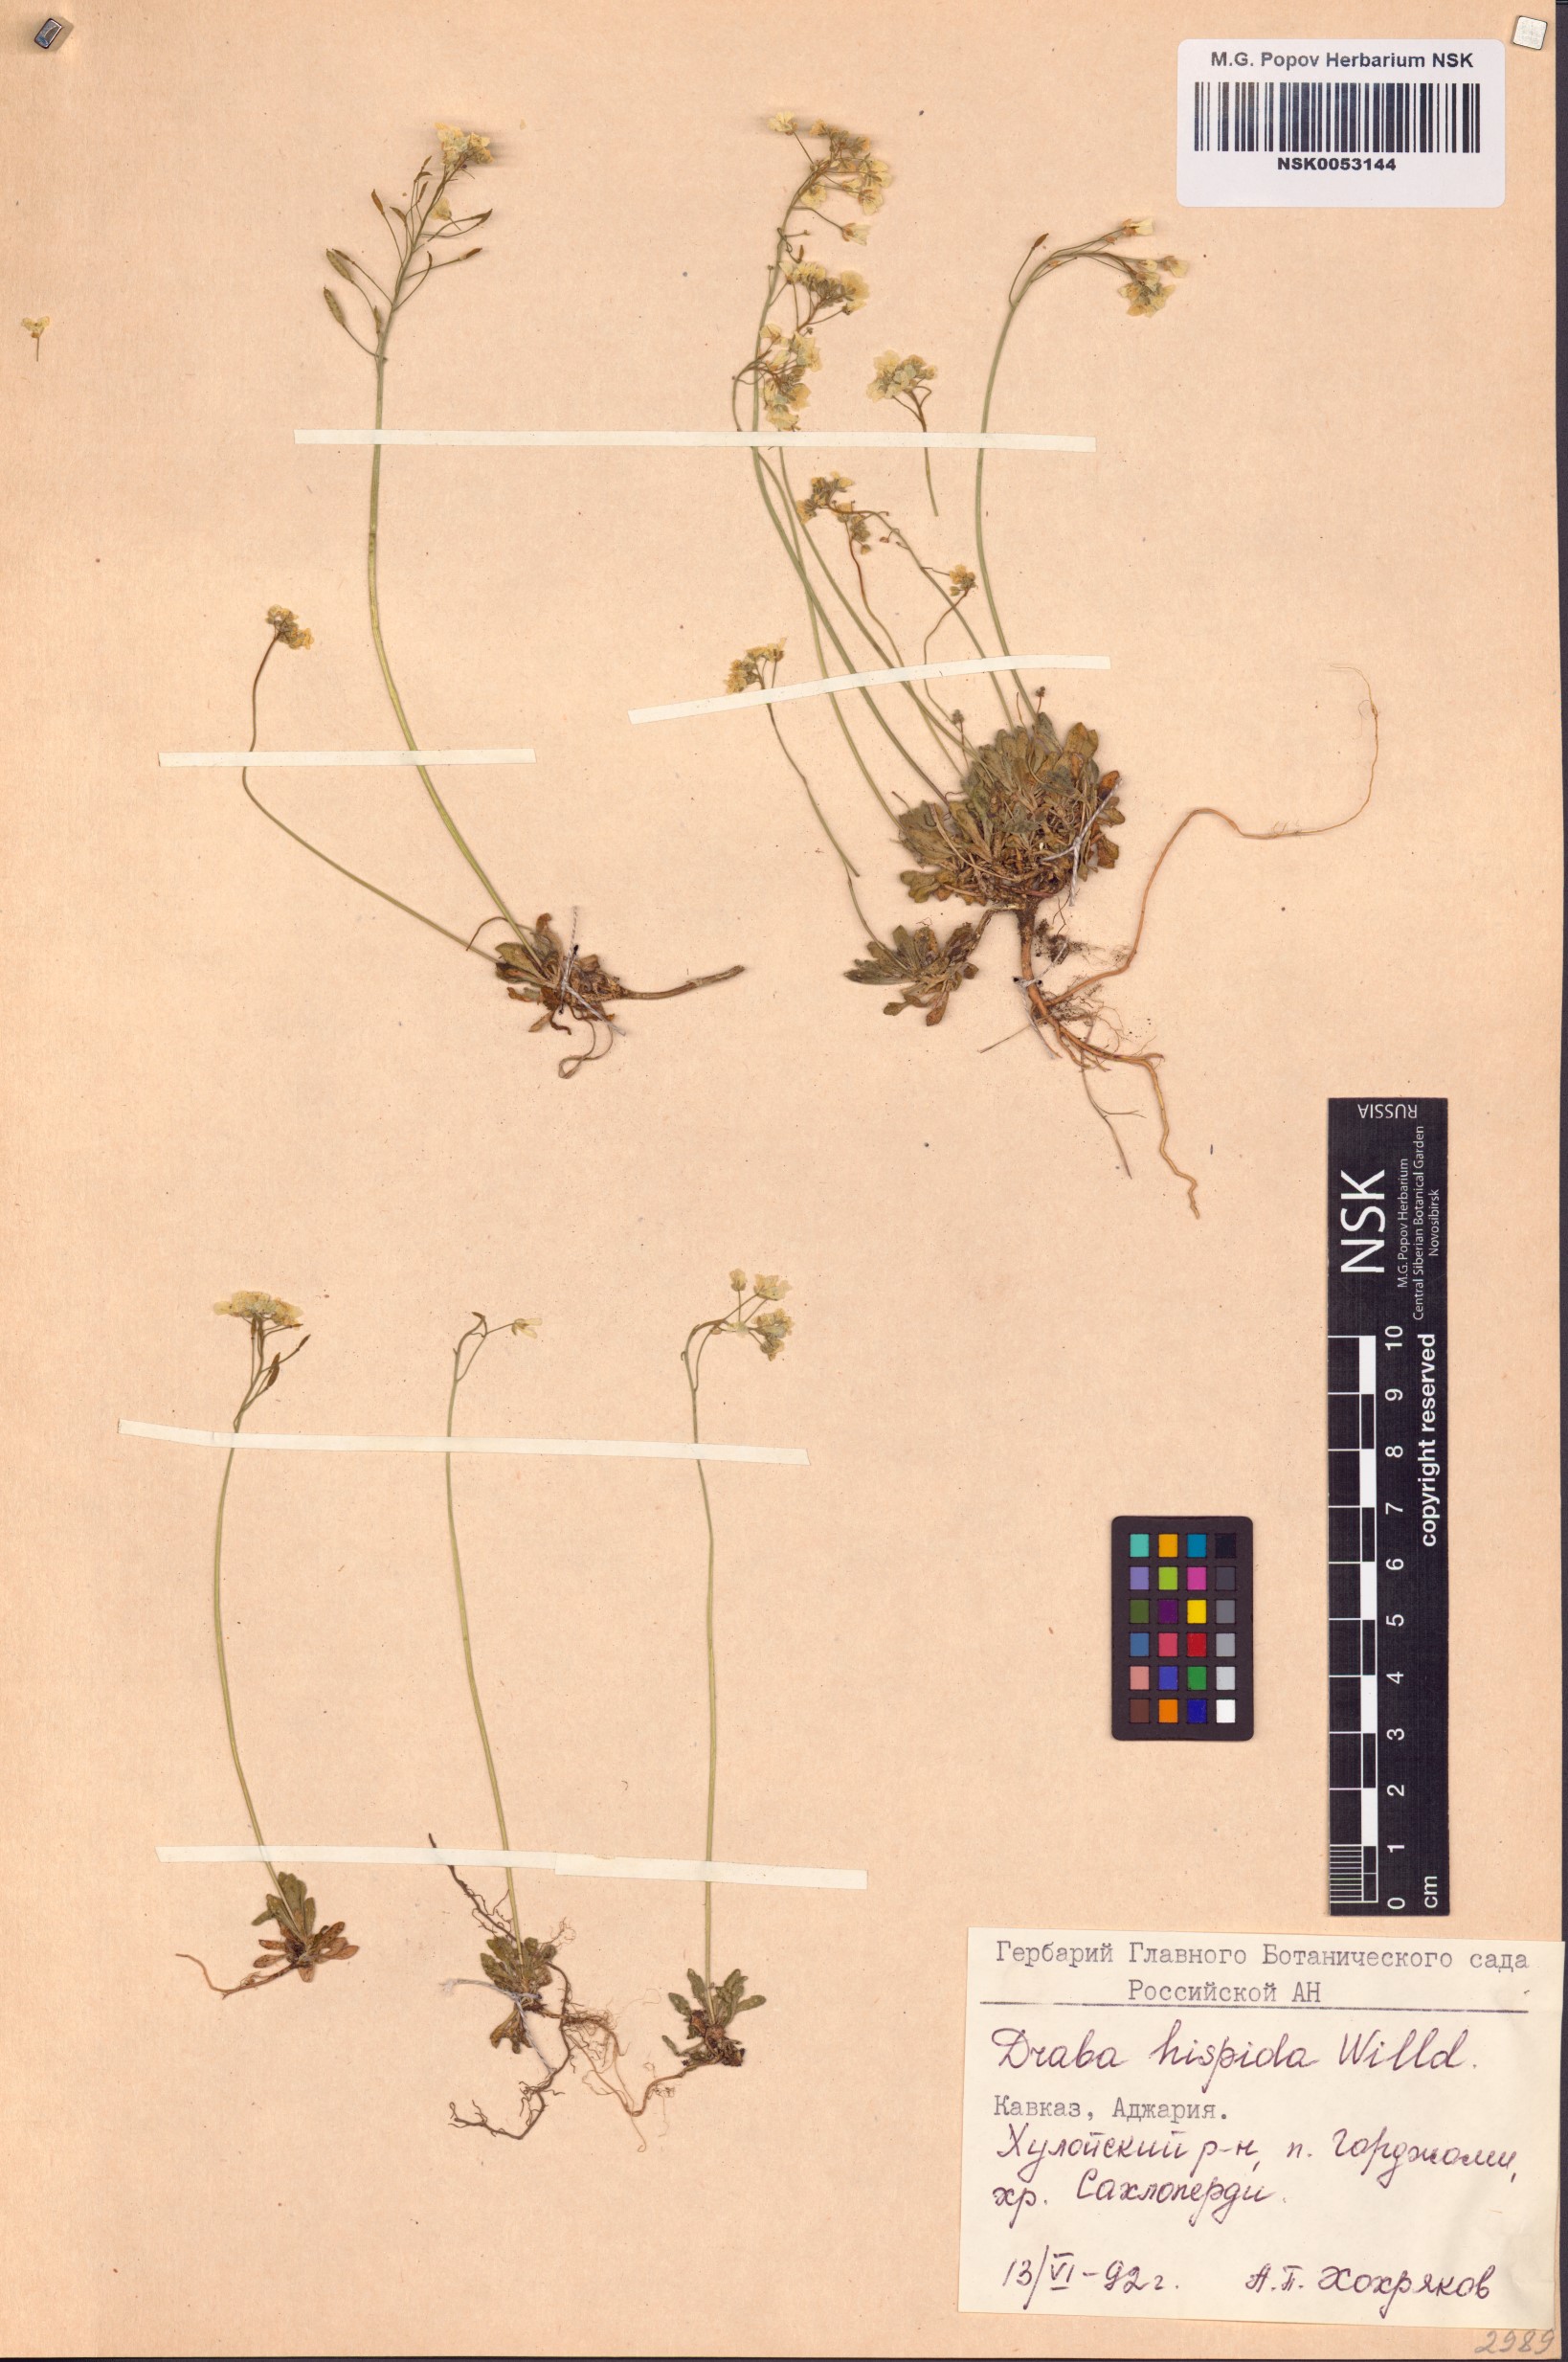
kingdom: Plantae
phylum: Tracheophyta
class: Magnoliopsida
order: Brassicales
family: Brassicaceae
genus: Draba
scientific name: Draba hispida
